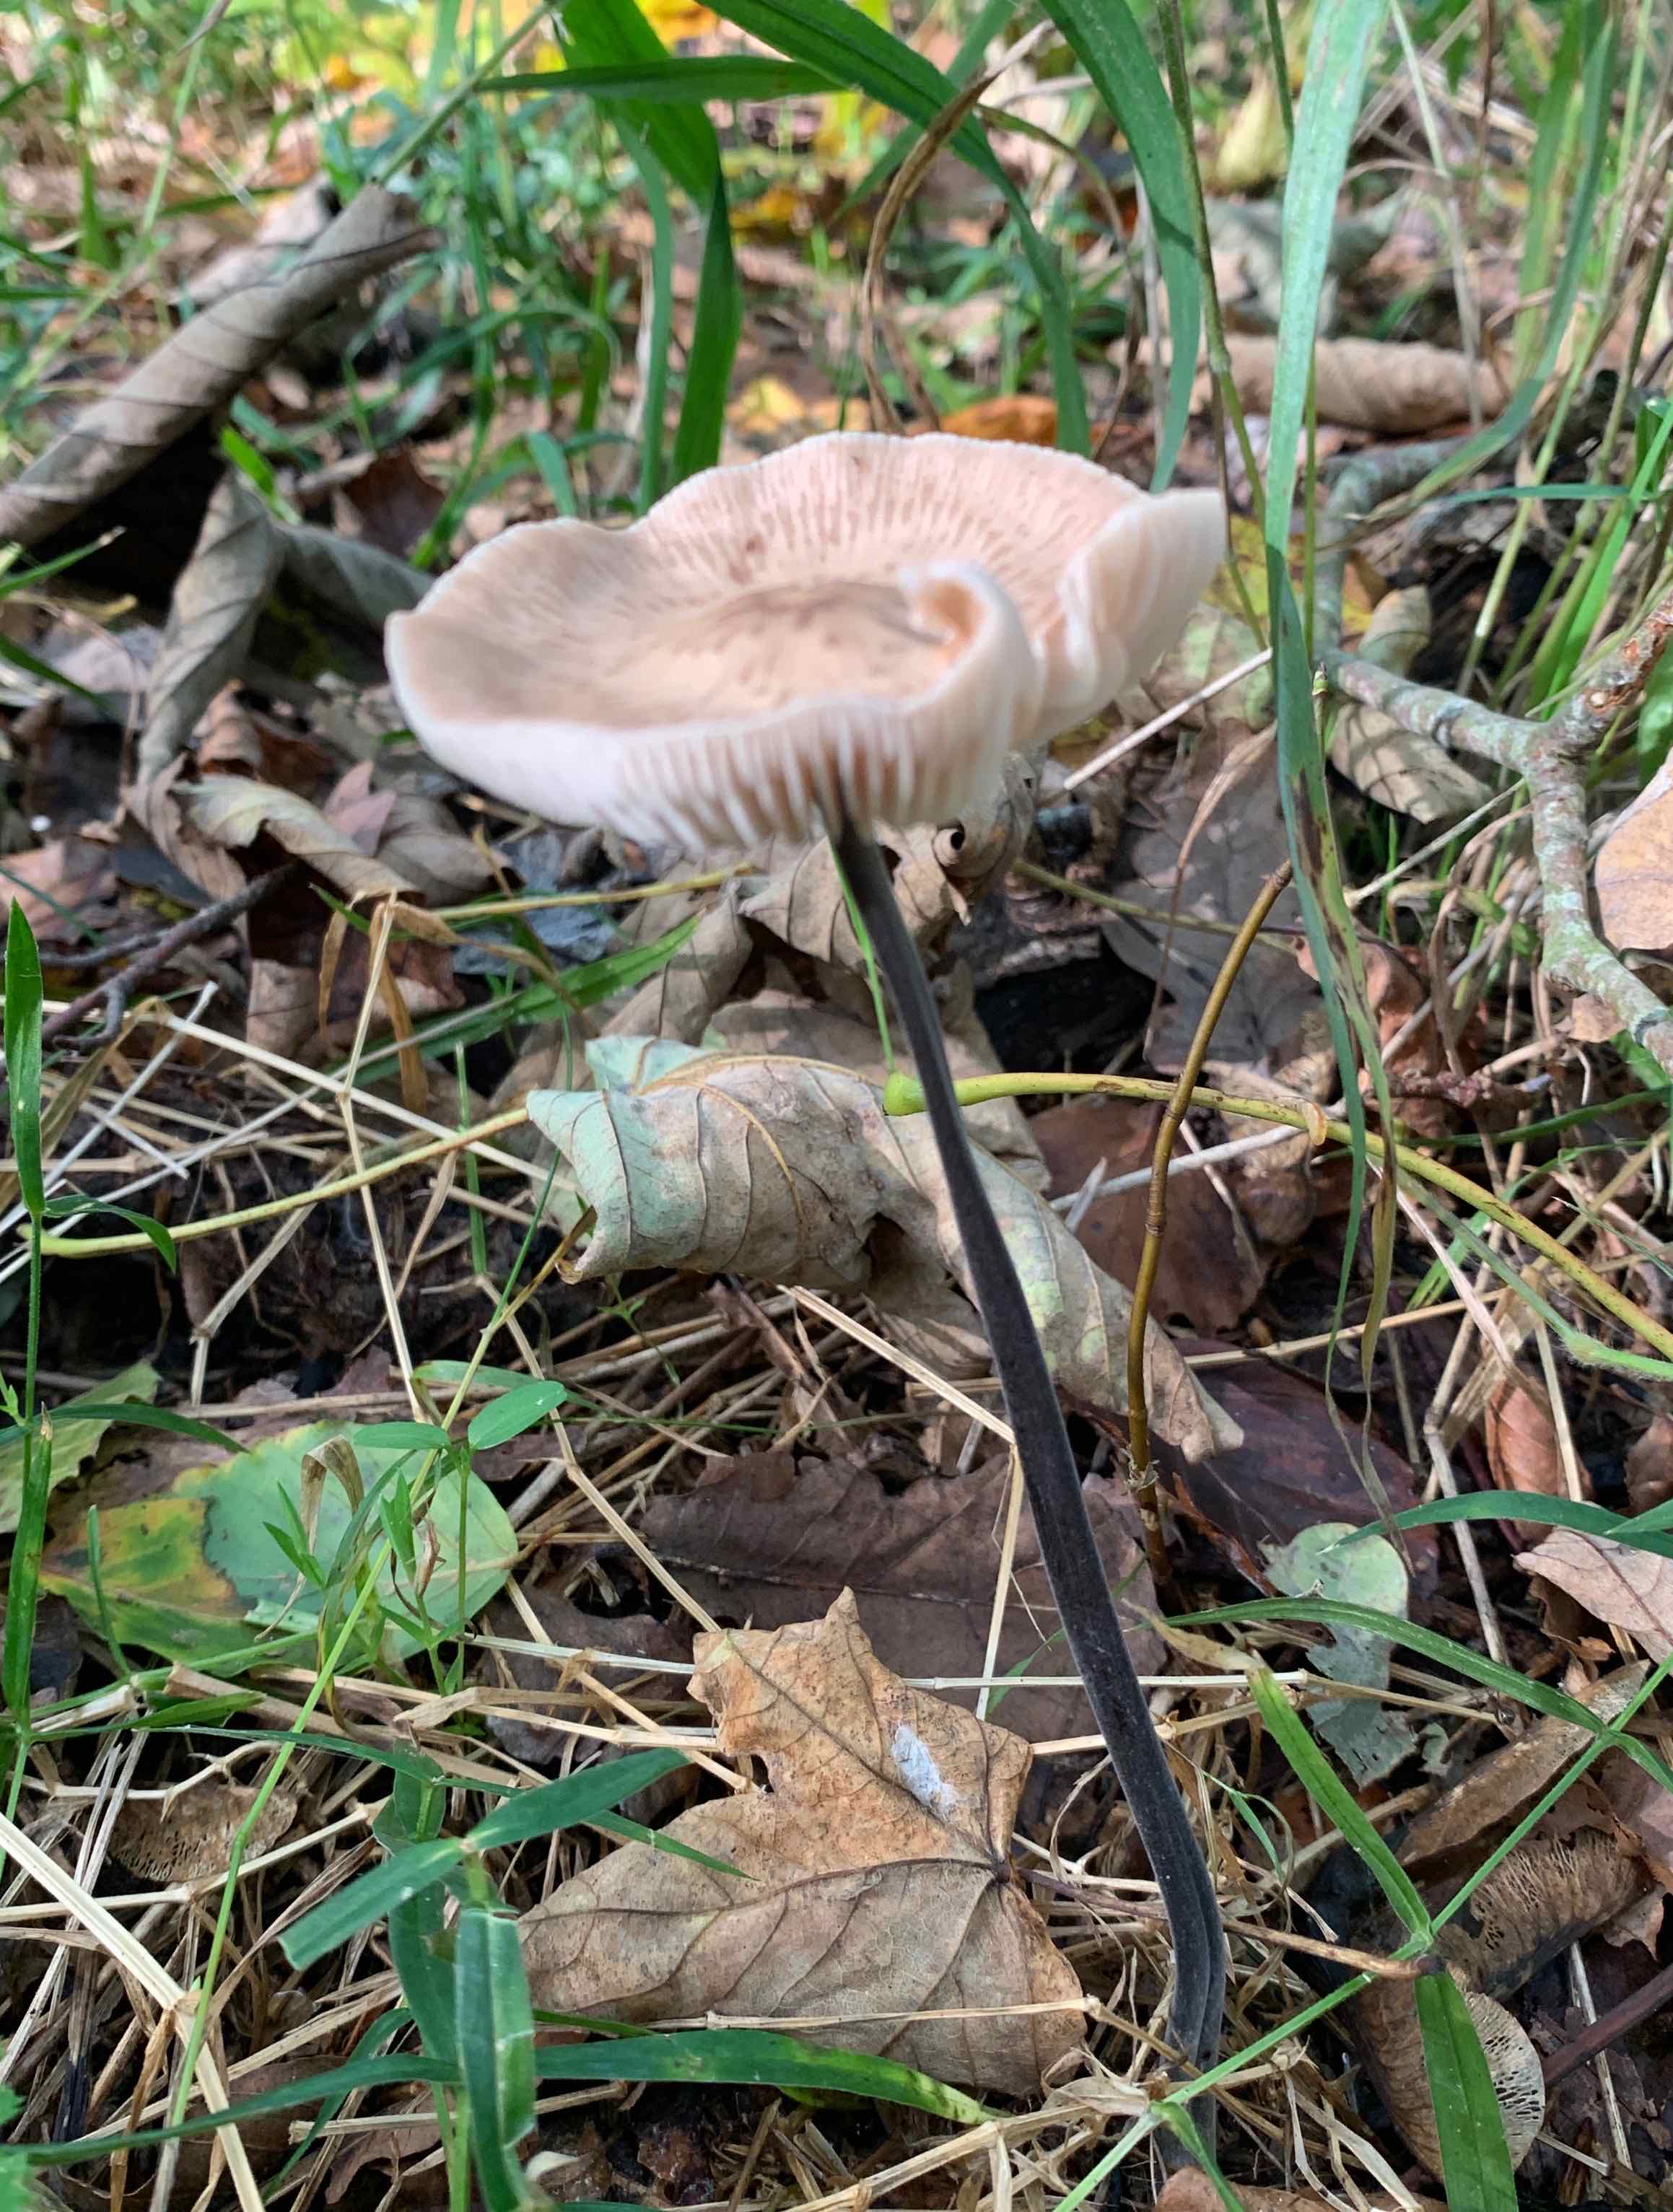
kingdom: Fungi
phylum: Basidiomycota
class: Agaricomycetes
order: Agaricales
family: Omphalotaceae
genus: Mycetinis
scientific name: Mycetinis alliaceus
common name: stor løghat
